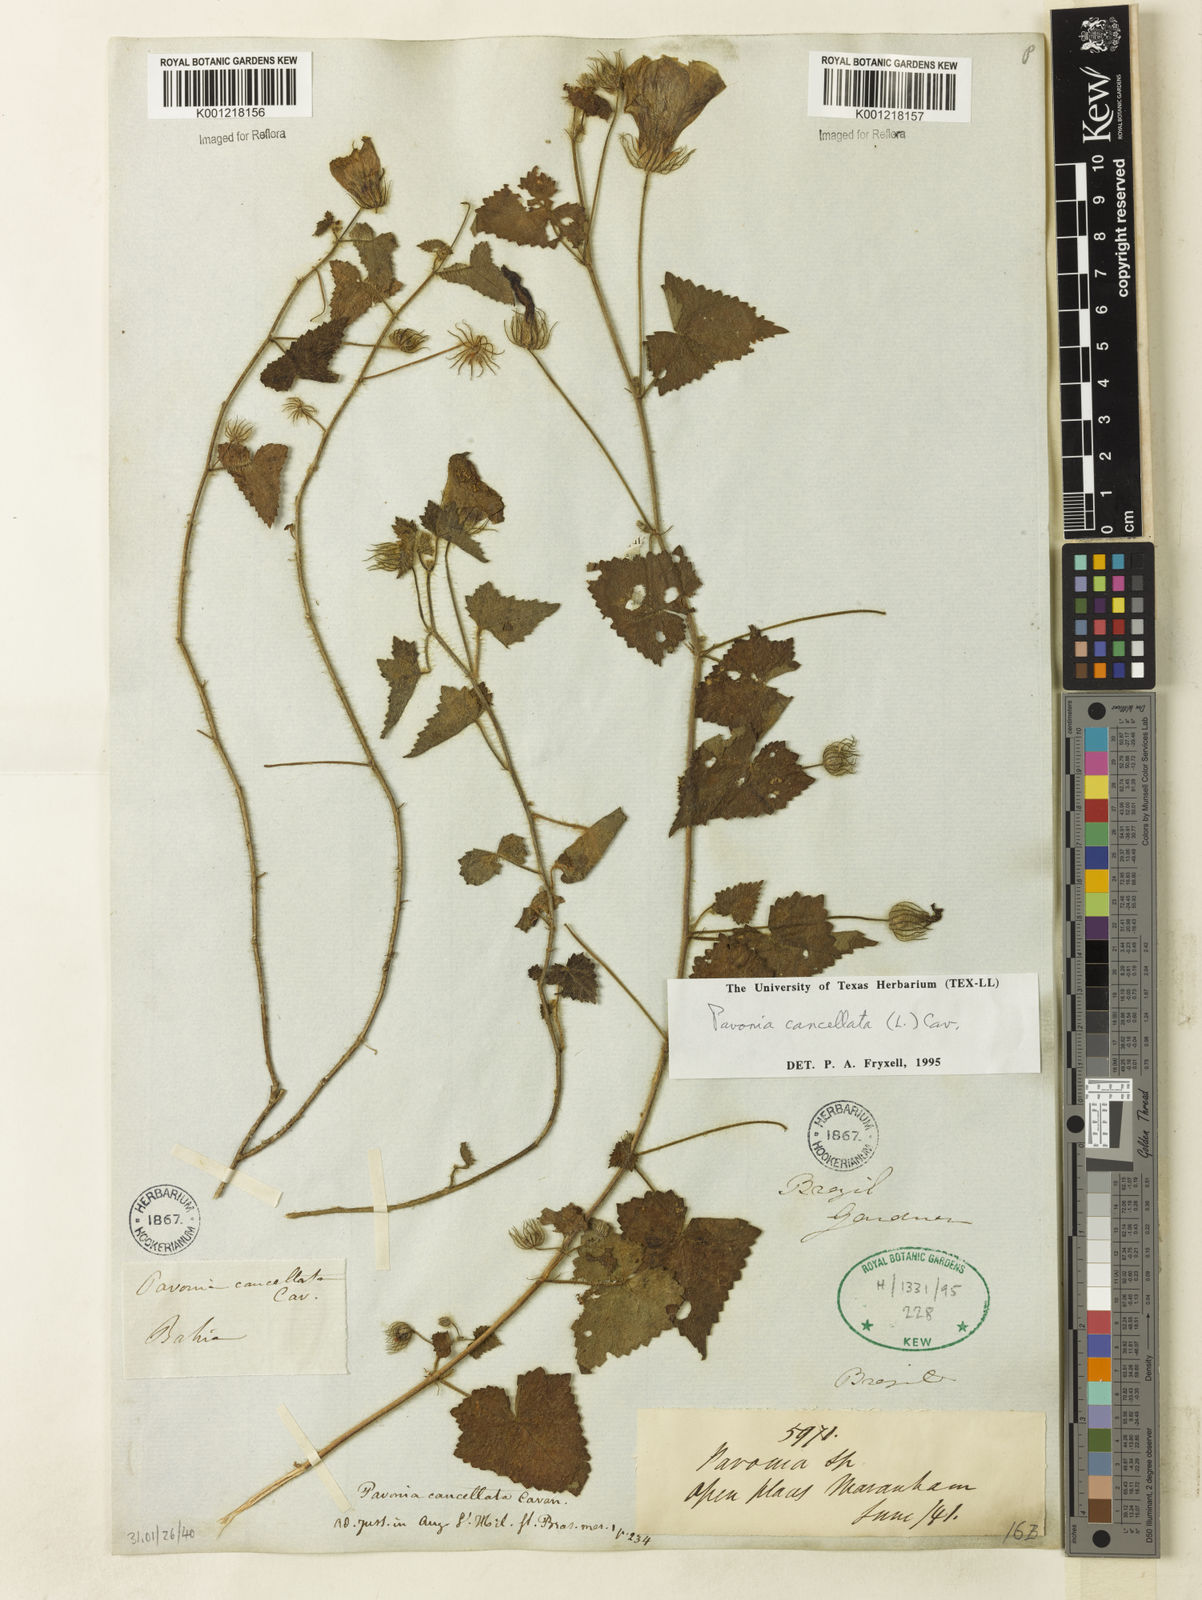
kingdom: Plantae
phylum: Tracheophyta
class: Magnoliopsida
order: Malvales
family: Malvaceae
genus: Pavonia
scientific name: Pavonia cancellata
